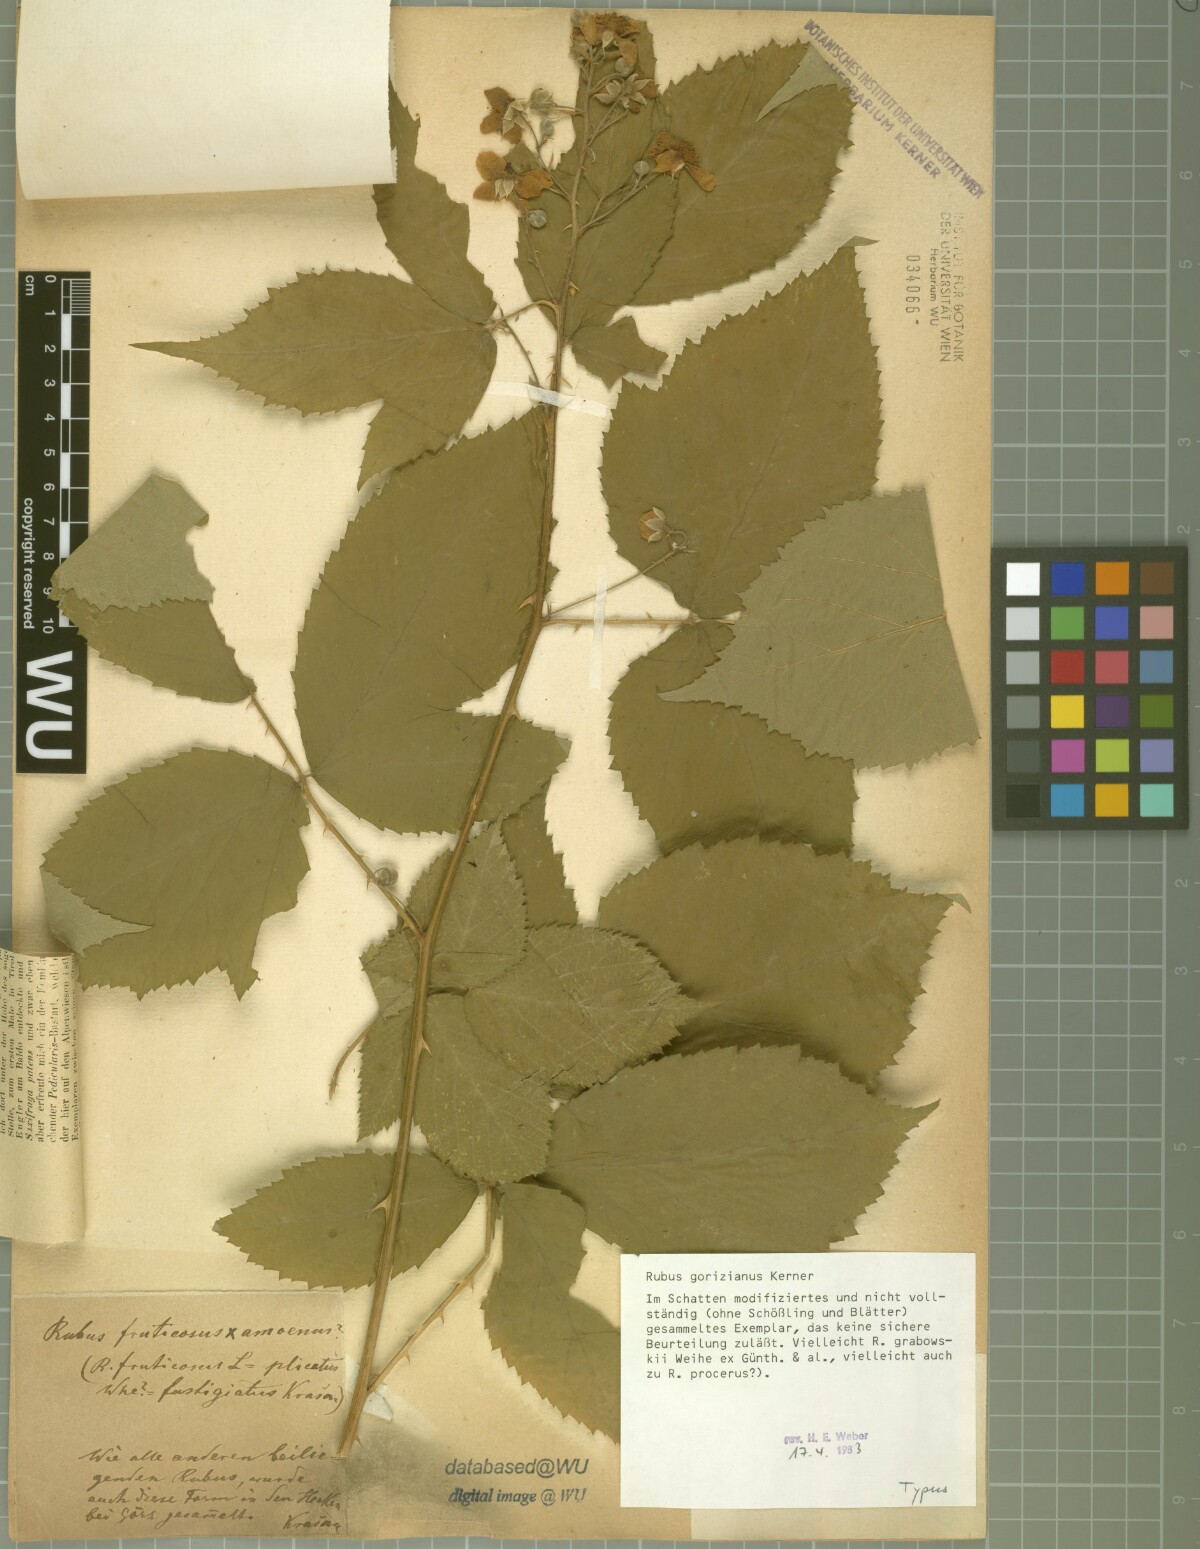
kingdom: Plantae
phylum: Tracheophyta
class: Magnoliopsida
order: Rosales
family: Rosaceae
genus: Rubus
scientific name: Rubus gorizianus
